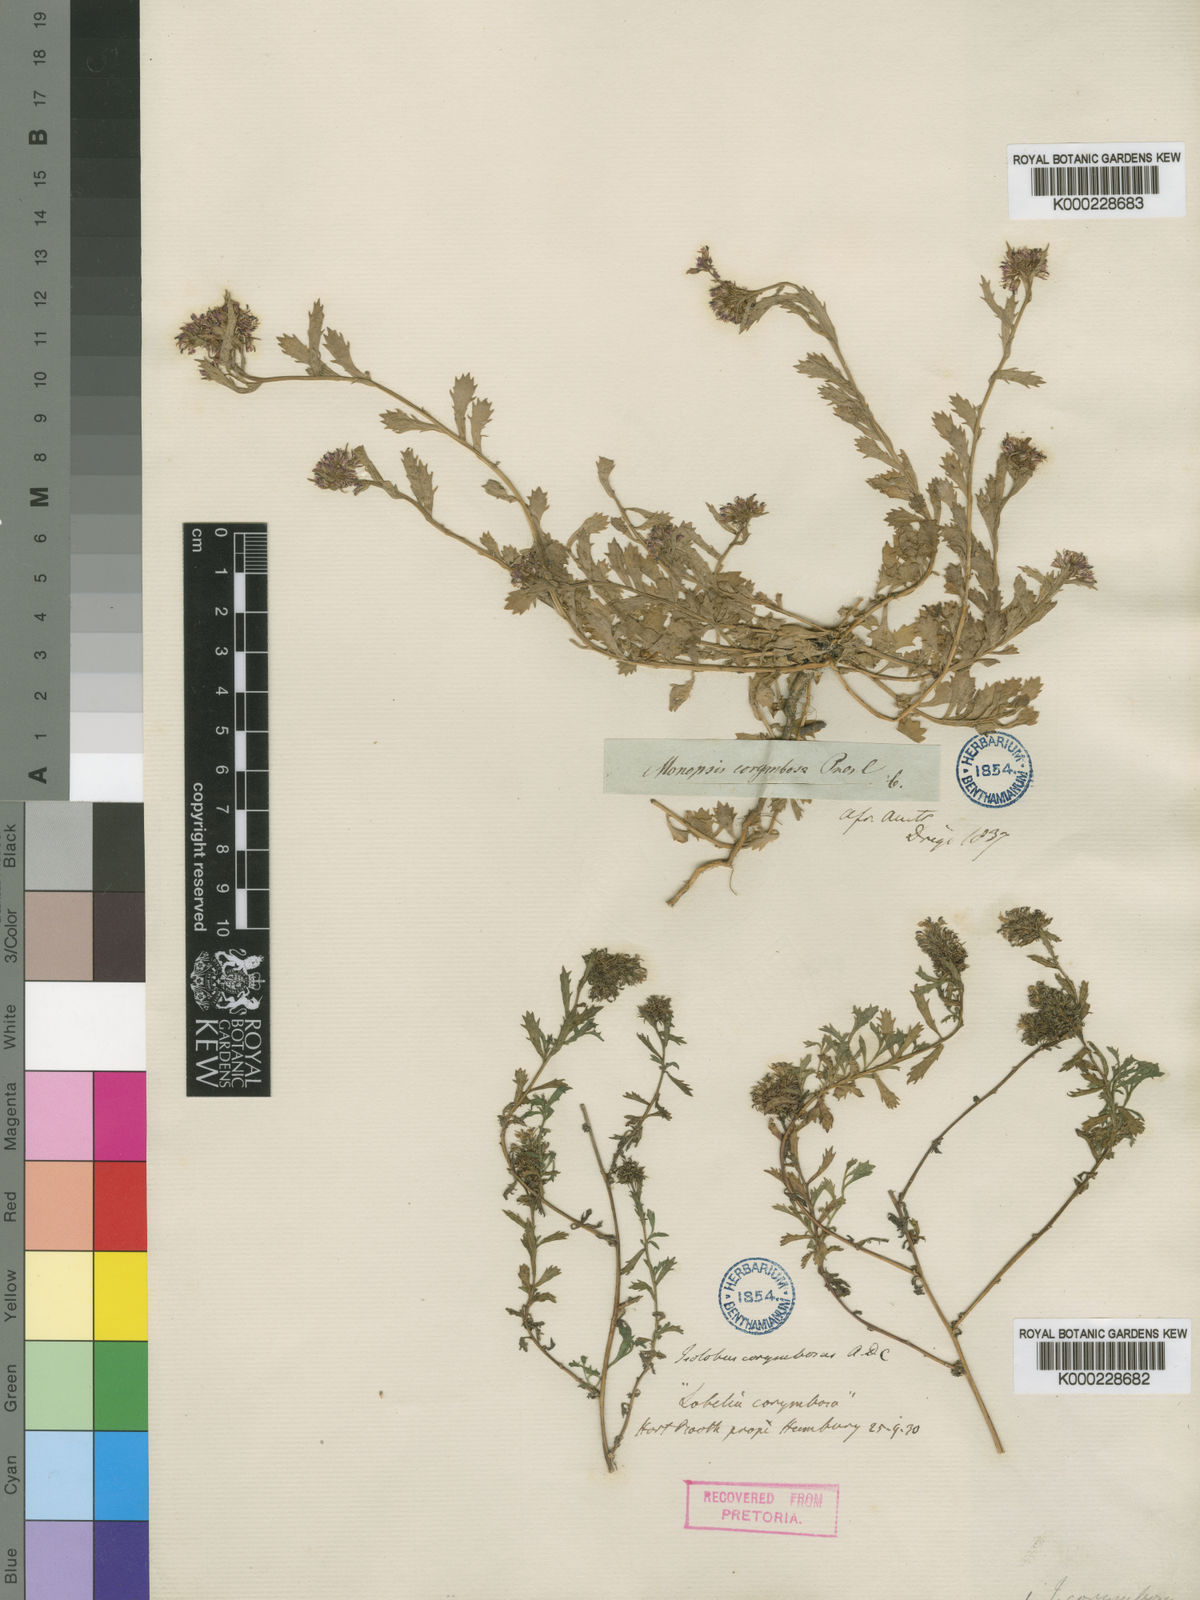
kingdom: Plantae
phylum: Tracheophyta
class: Magnoliopsida
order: Asterales
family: Campanulaceae
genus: Lobelia
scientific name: Lobelia jasionoides
